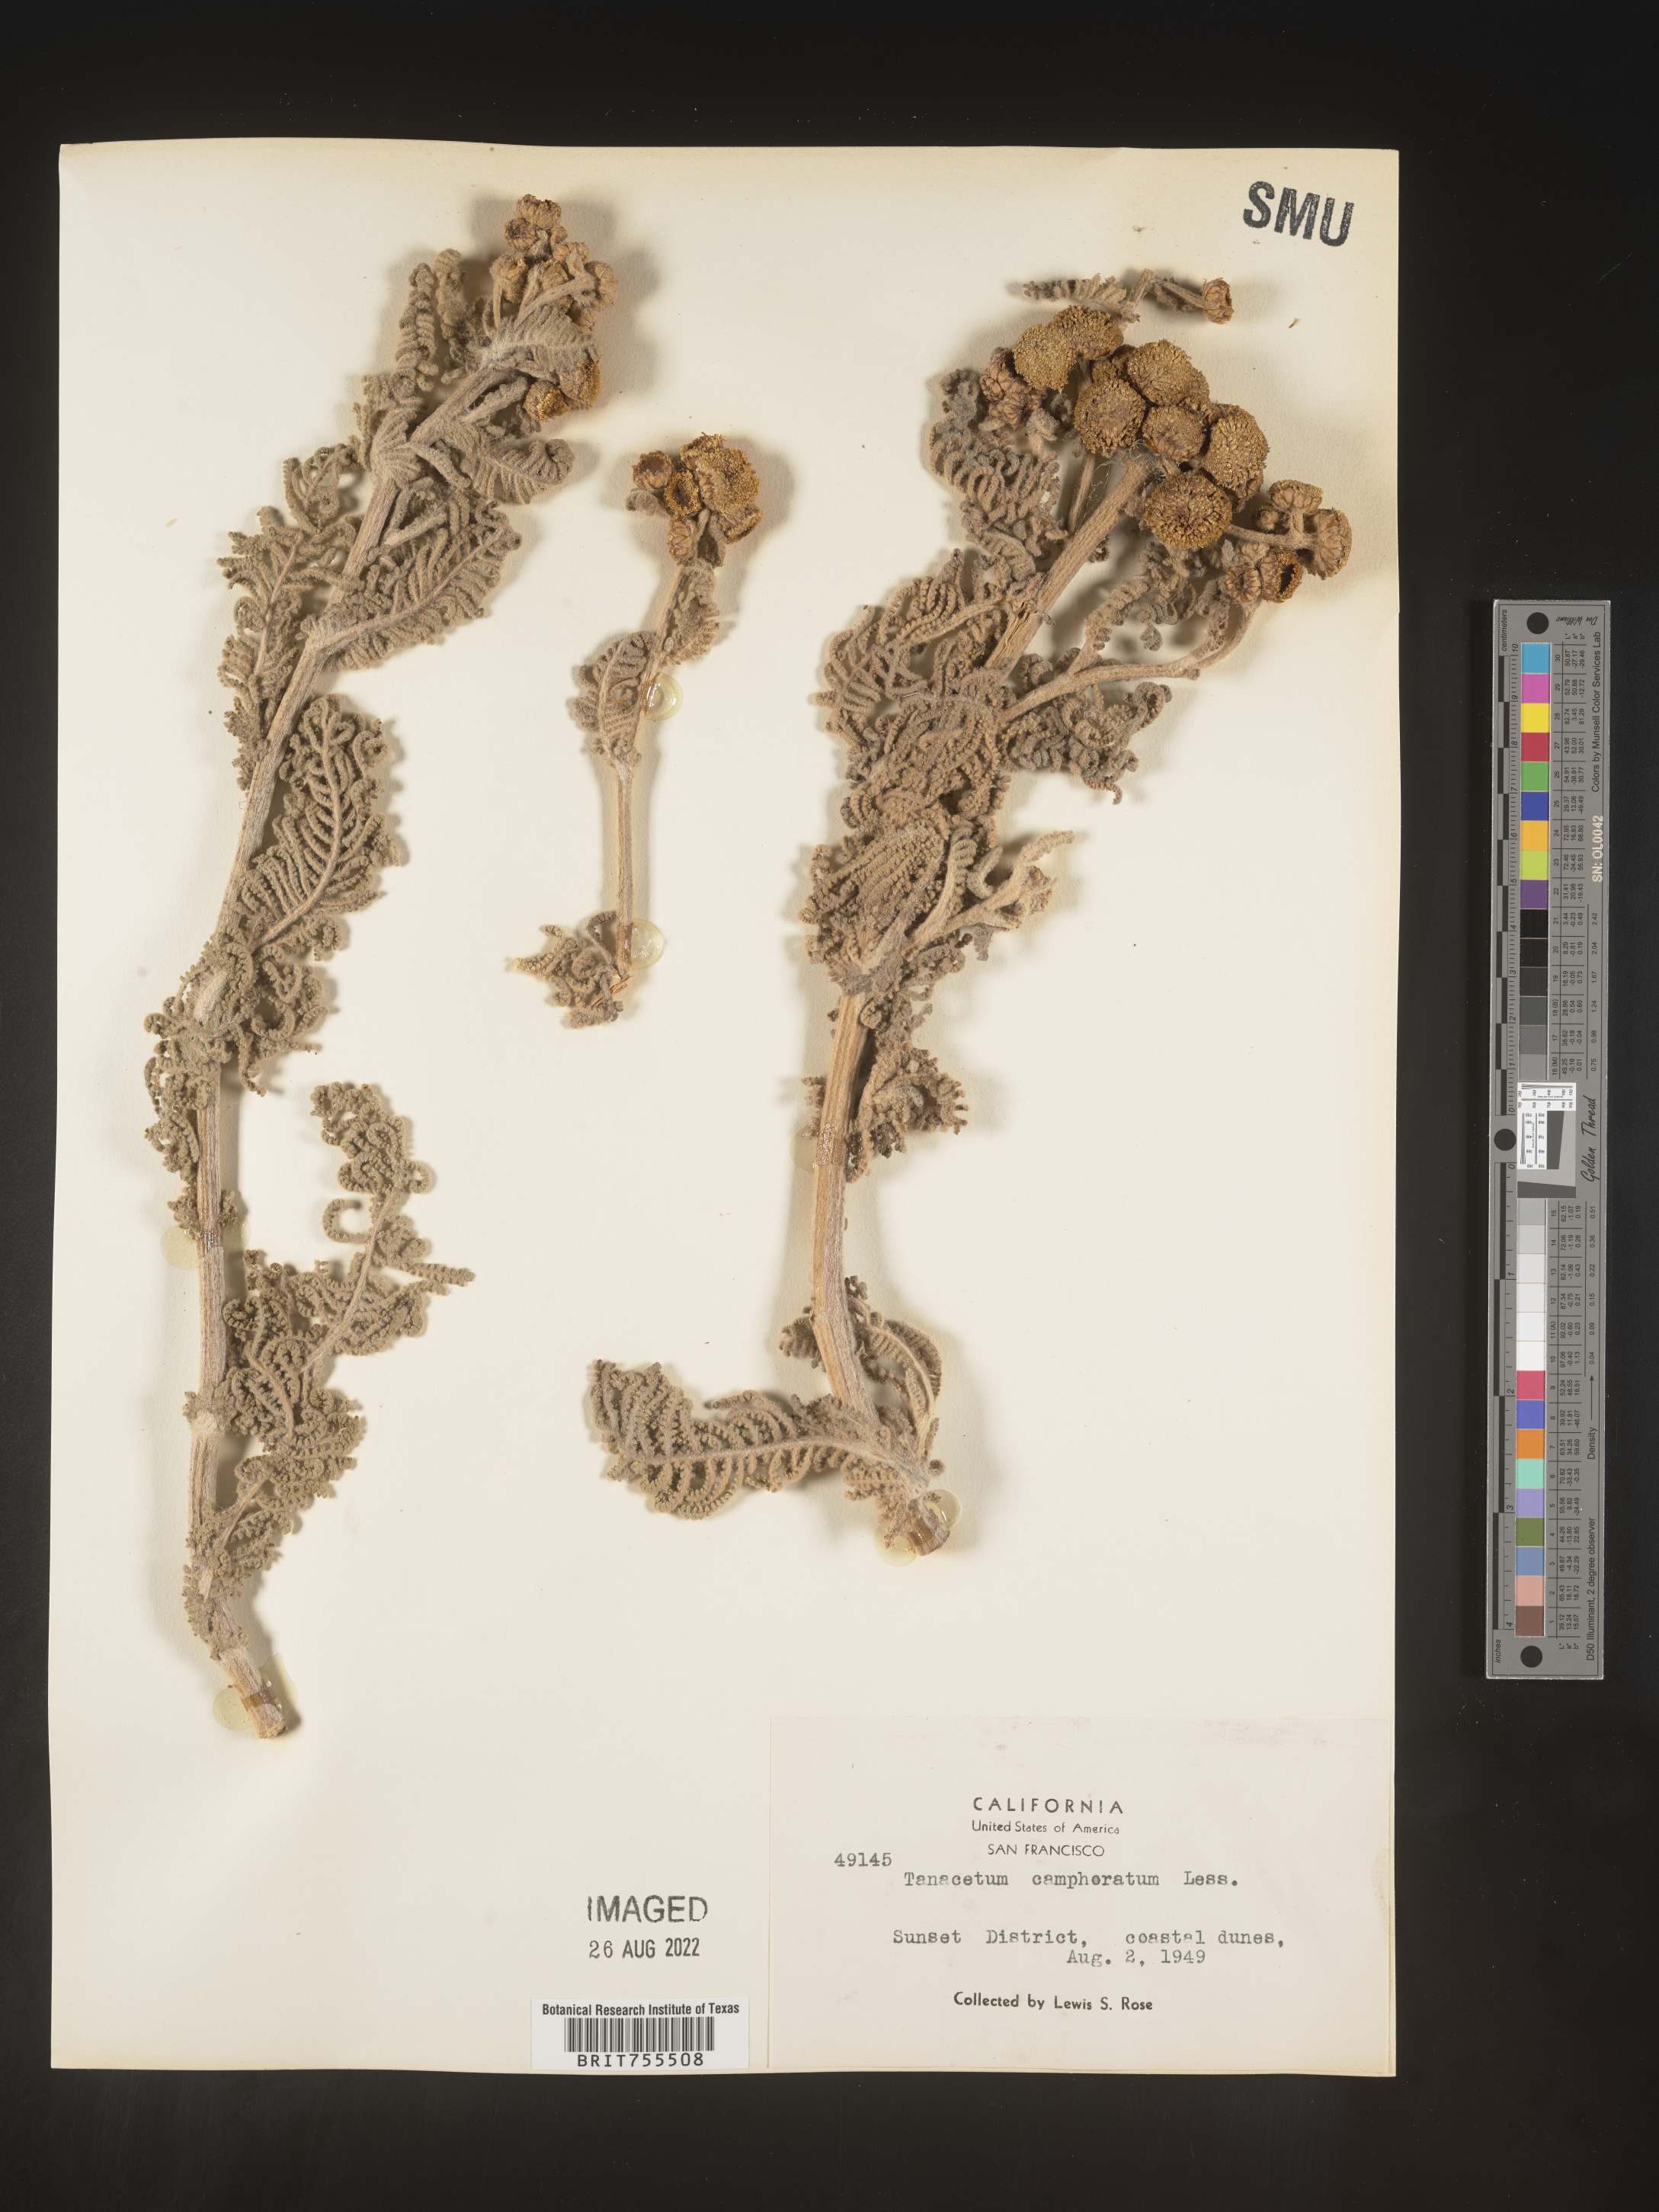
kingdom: Plantae
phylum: Tracheophyta
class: Magnoliopsida
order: Asterales
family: Asteraceae
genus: Tanacetum
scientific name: Tanacetum bipinnatum
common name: Dwarf tansy
